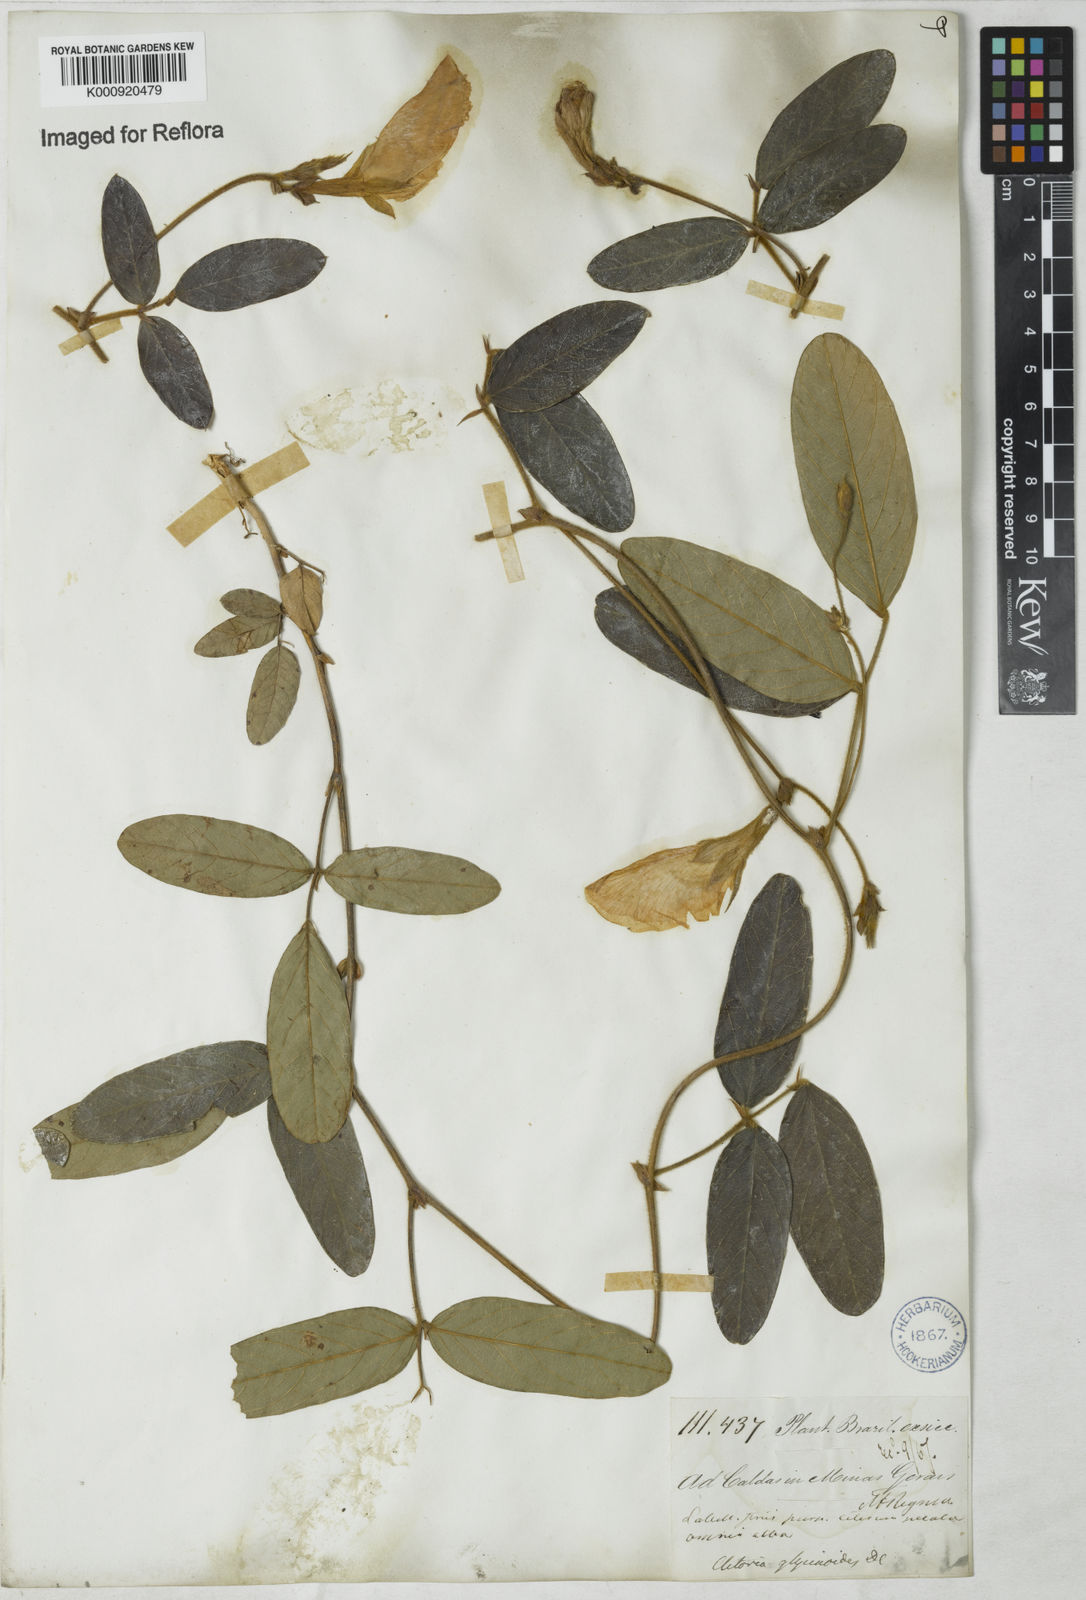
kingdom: Plantae
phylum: Tracheophyta
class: Magnoliopsida
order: Fabales
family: Fabaceae
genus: Clitoria
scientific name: Clitoria
